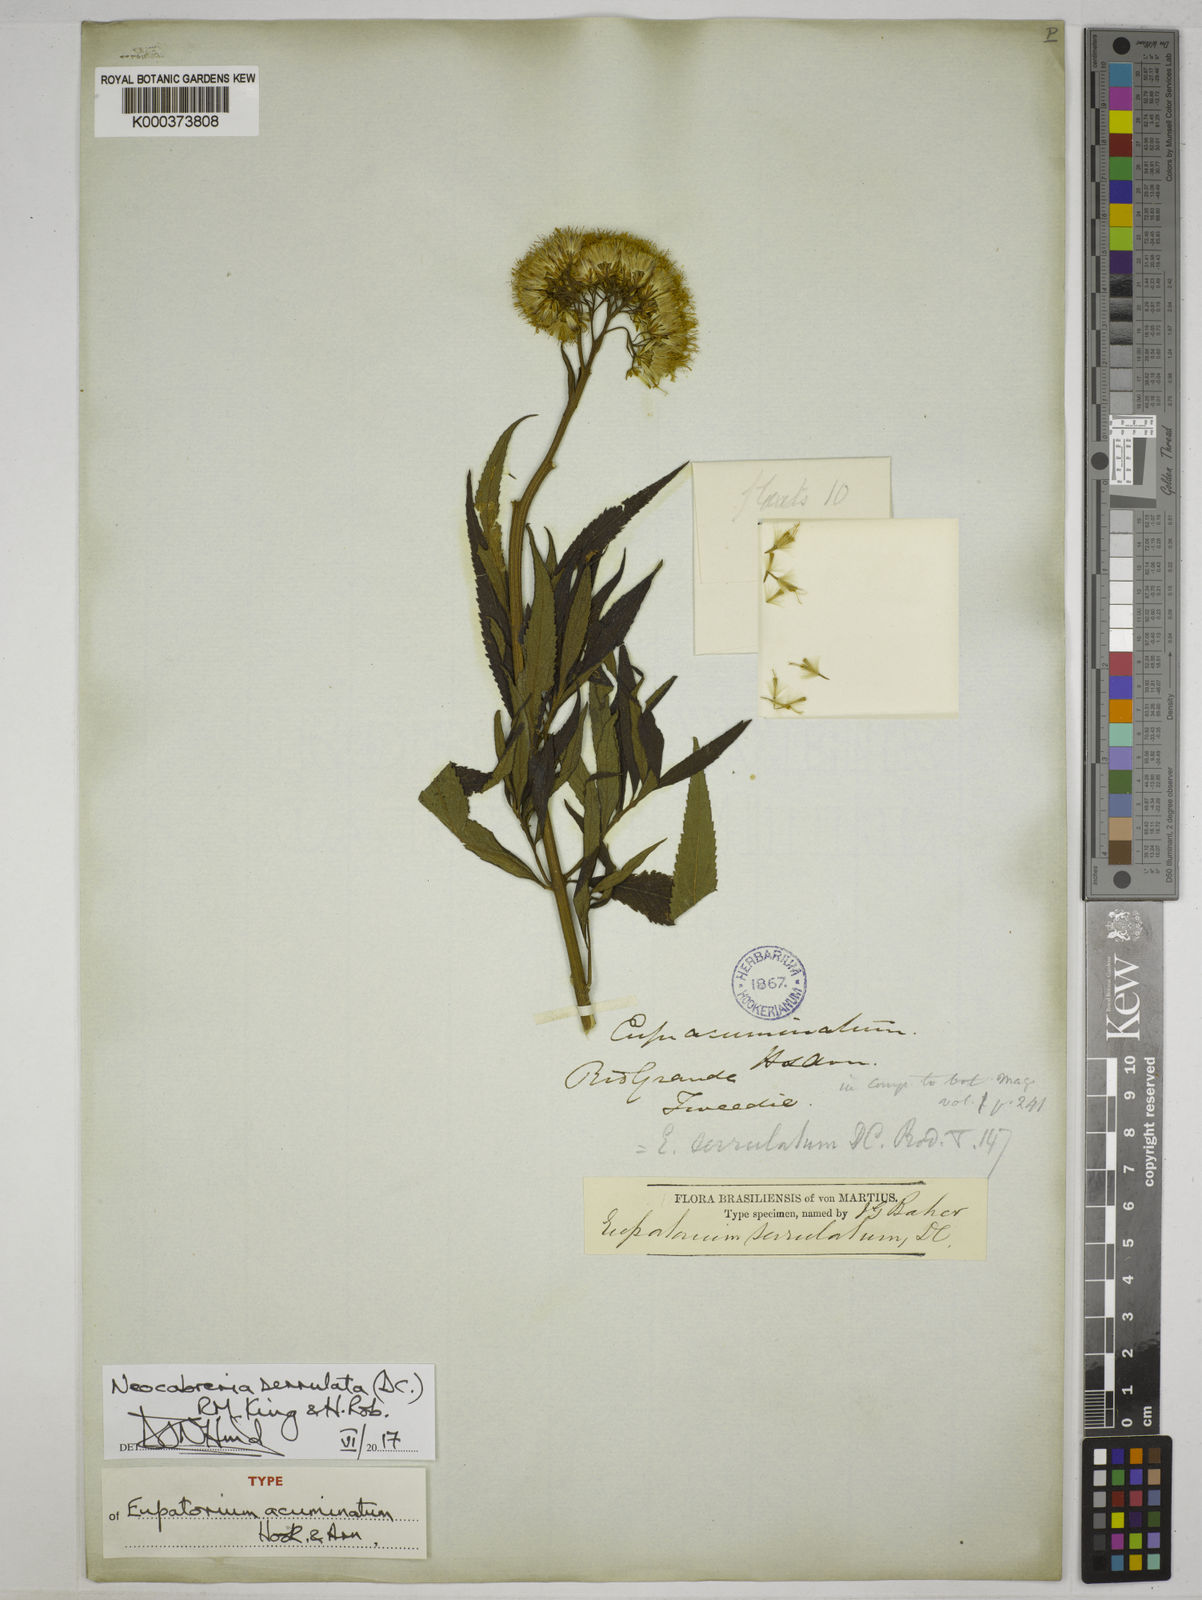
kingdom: Plantae
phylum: Tracheophyta
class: Magnoliopsida
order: Asterales
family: Asteraceae
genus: Neocabreria
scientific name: Neocabreria serrulata
